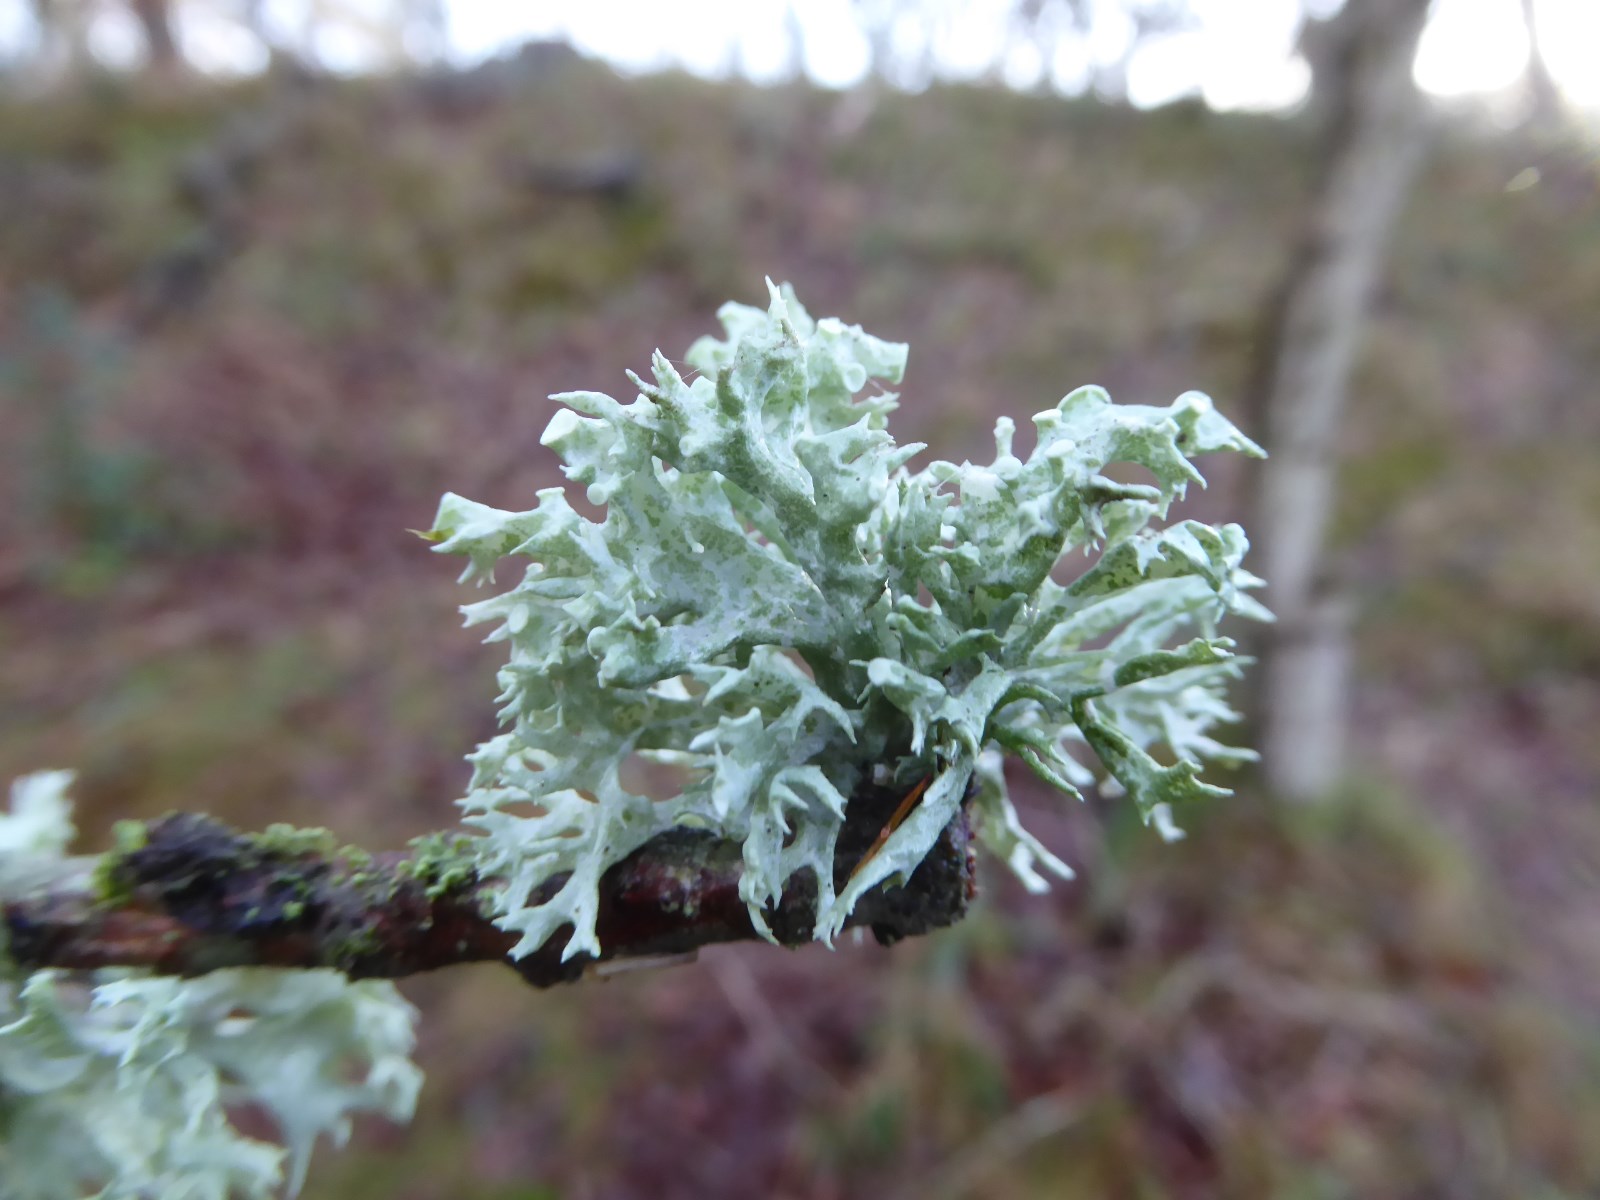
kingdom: Fungi
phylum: Ascomycota
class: Lecanoromycetes
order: Lecanorales
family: Ramalinaceae
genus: Ramalina
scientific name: Ramalina fastigiata
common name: tue-grenlav
